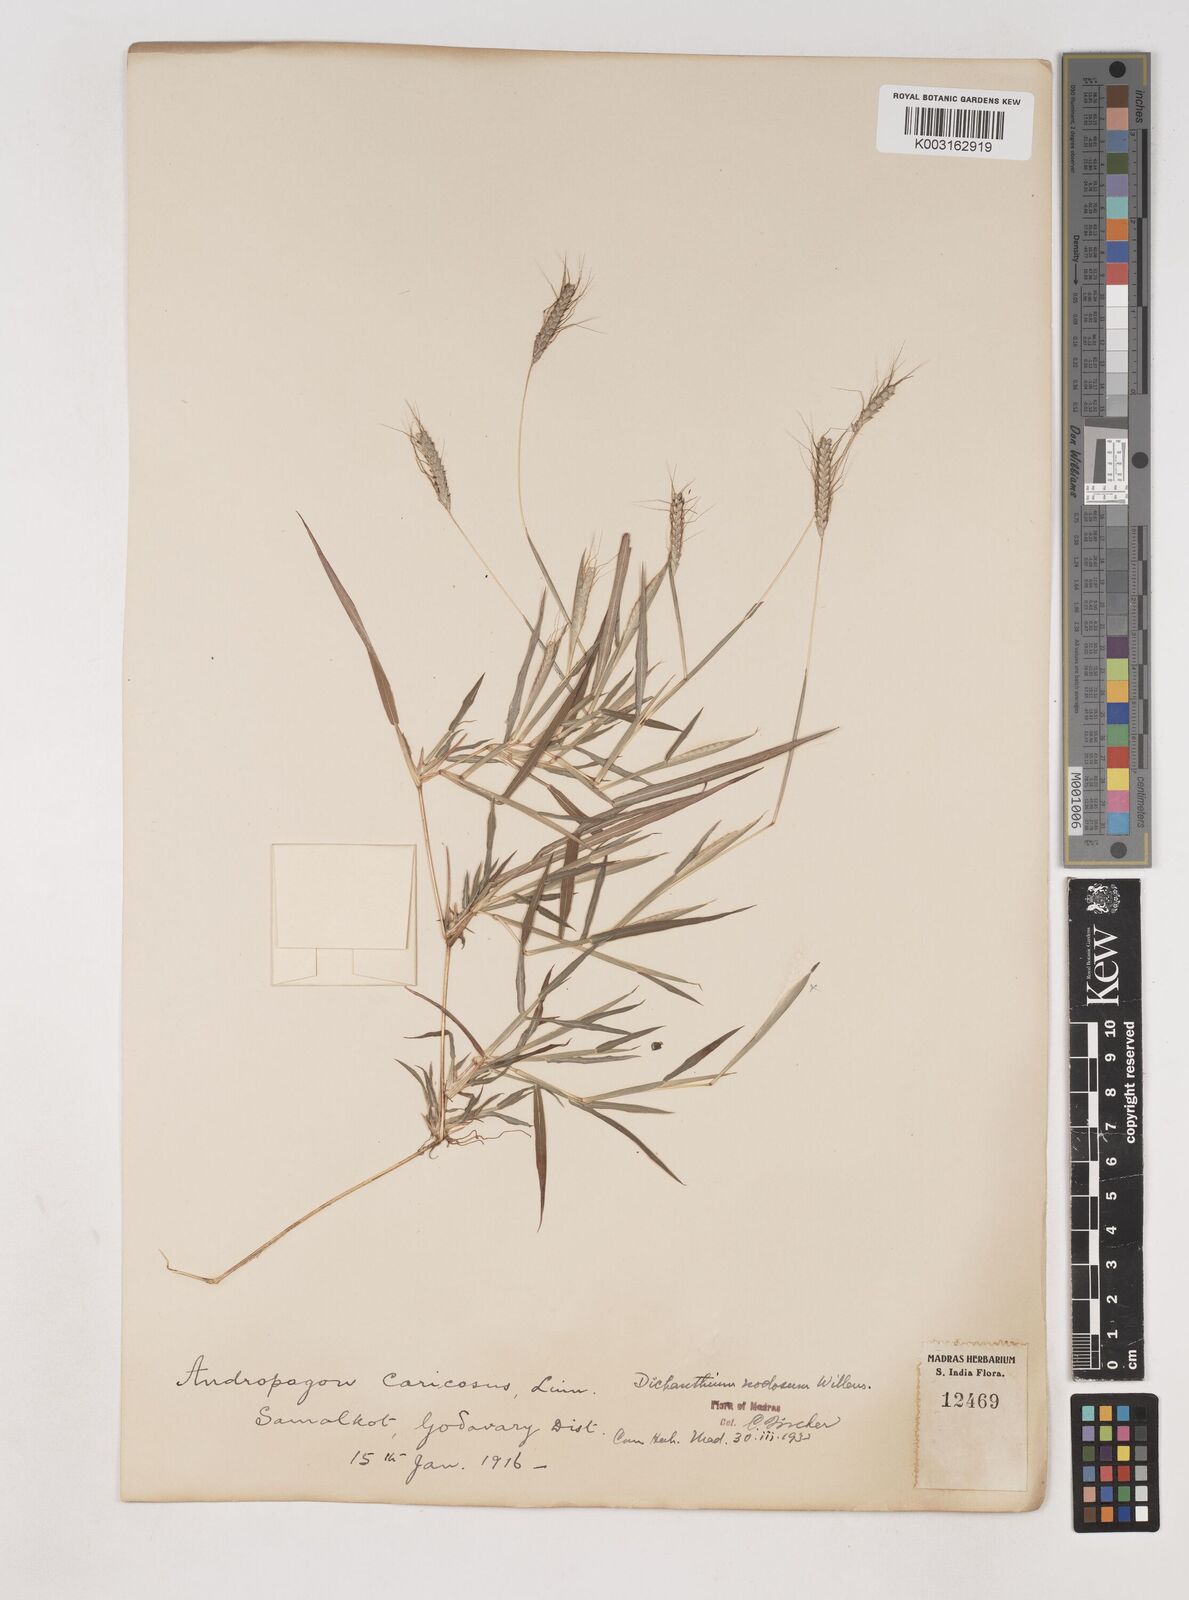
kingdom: Plantae
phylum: Tracheophyta
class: Liliopsida
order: Poales
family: Poaceae
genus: Dichanthium
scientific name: Dichanthium aristatum
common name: Angleton bluestem
